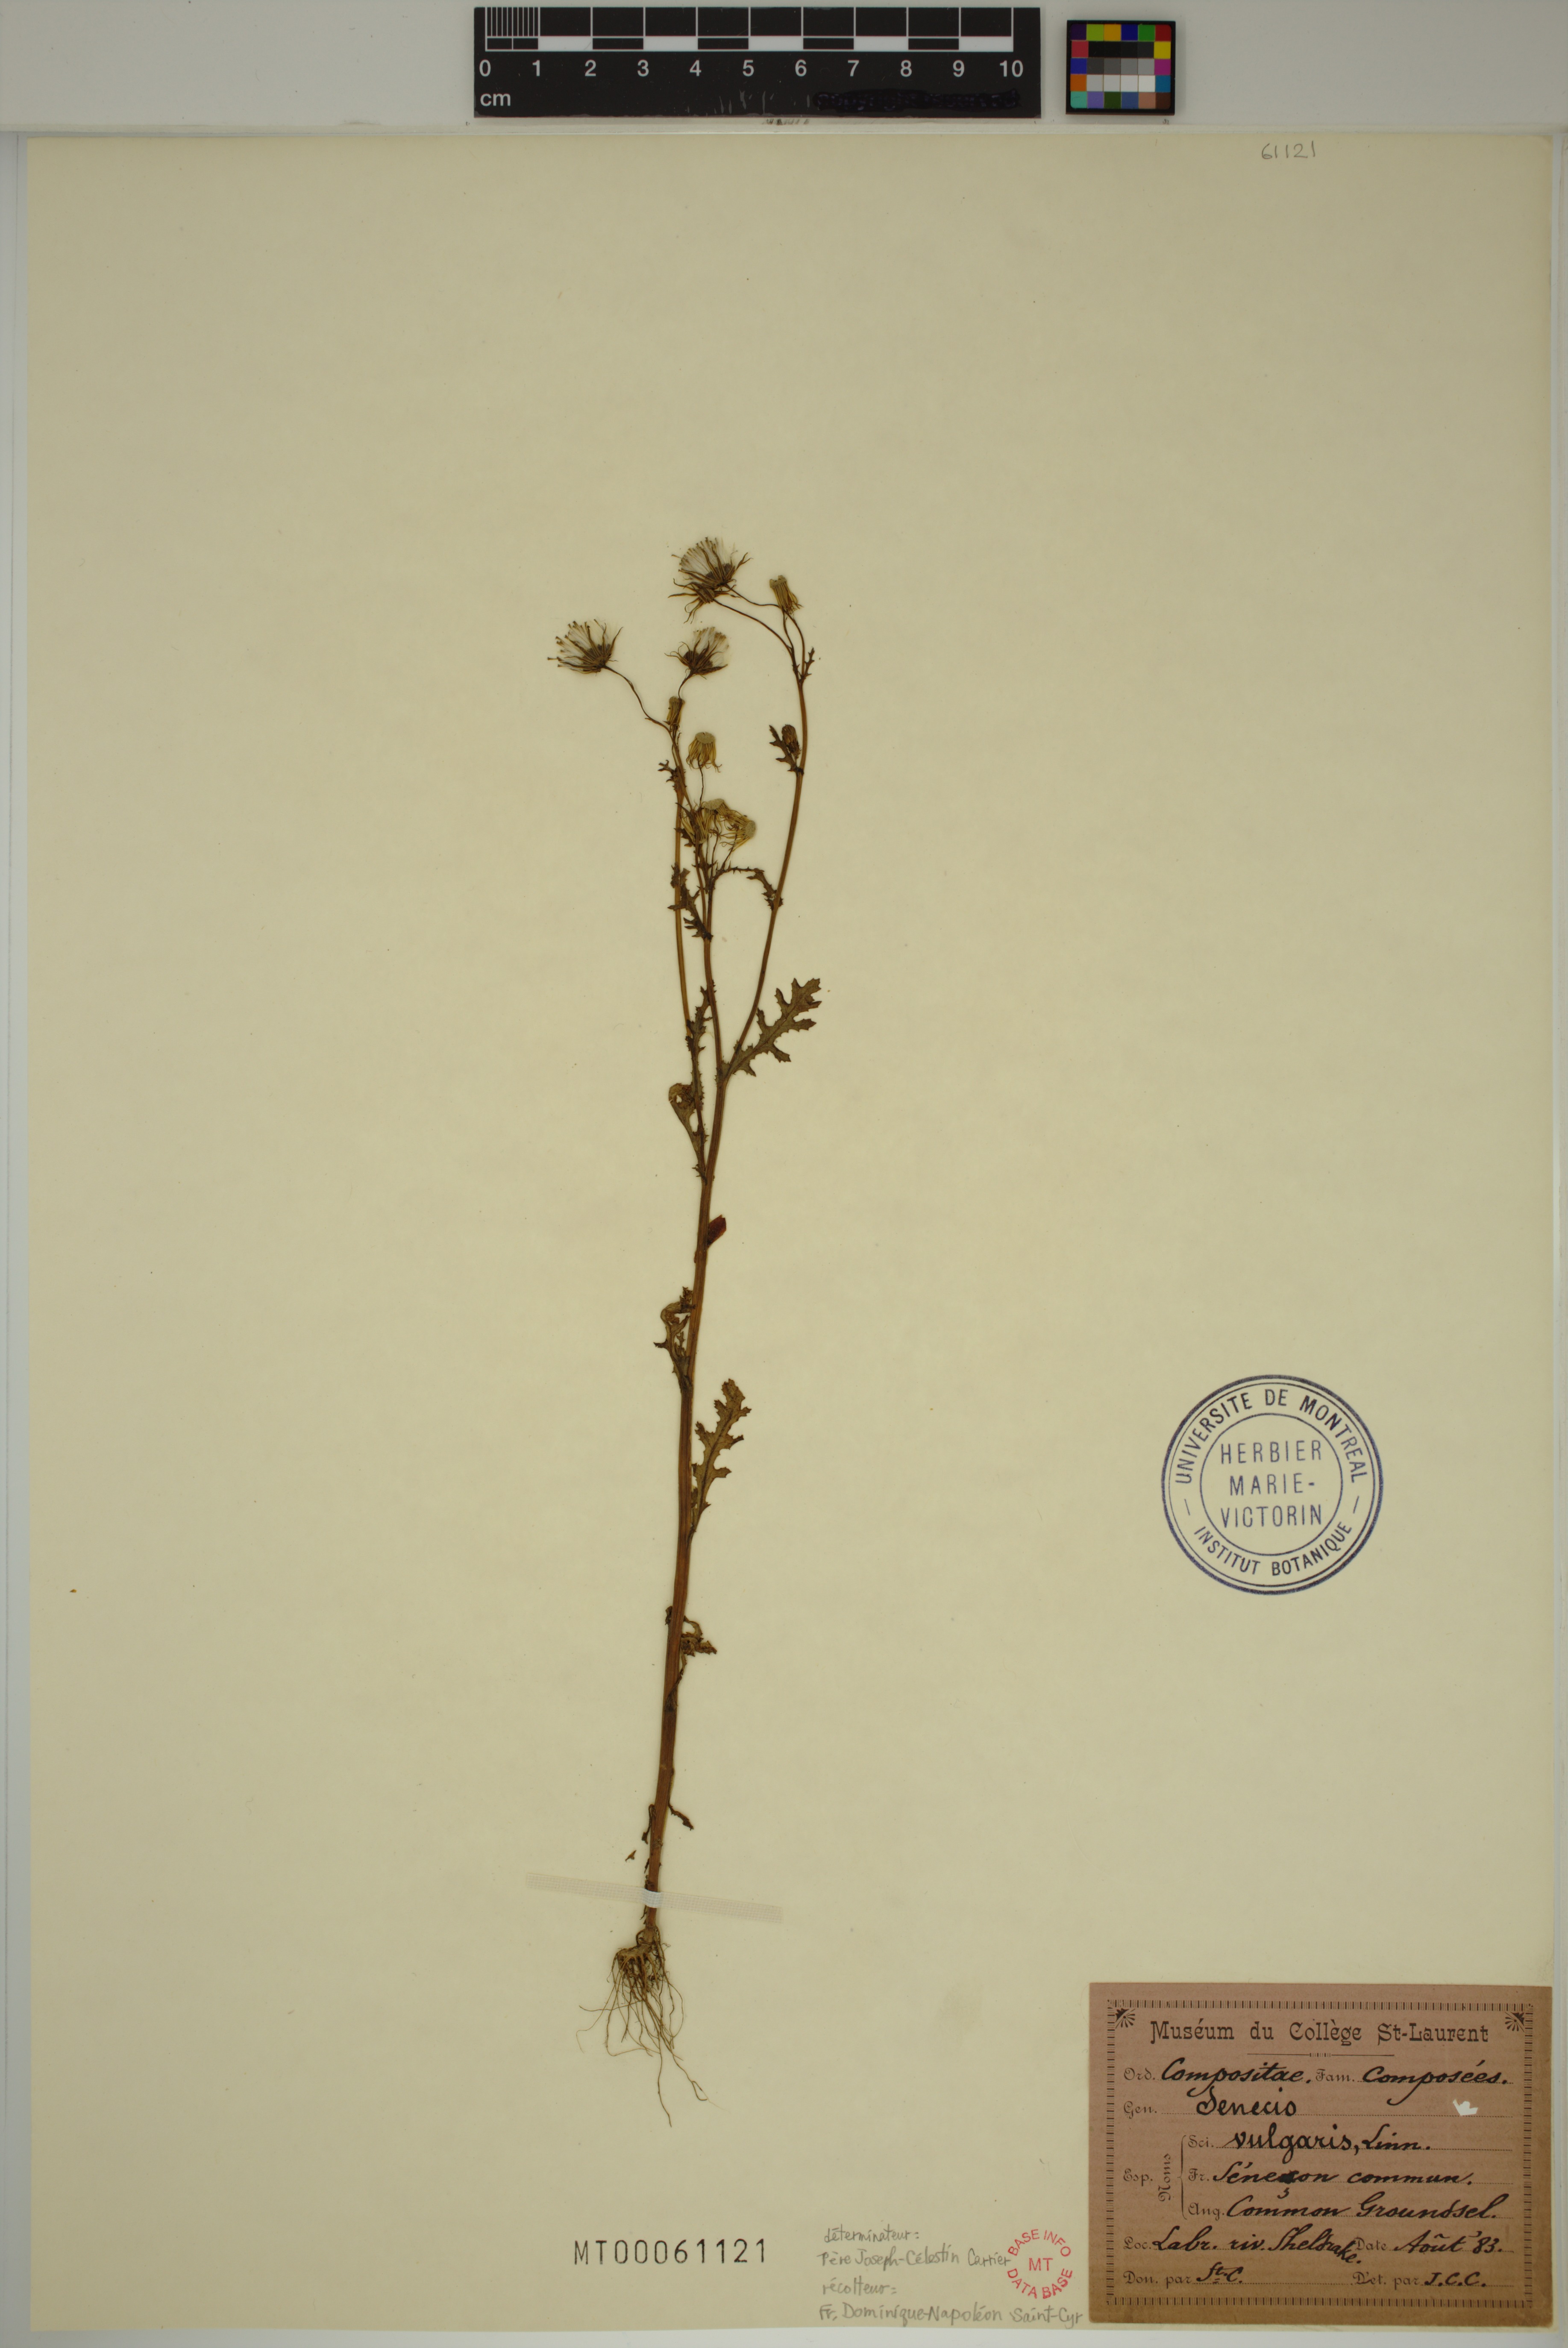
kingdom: Plantae
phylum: Tracheophyta
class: Magnoliopsida
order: Asterales
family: Asteraceae
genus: Senecio
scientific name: Senecio vulgaris
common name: Old-man-in-the-spring
